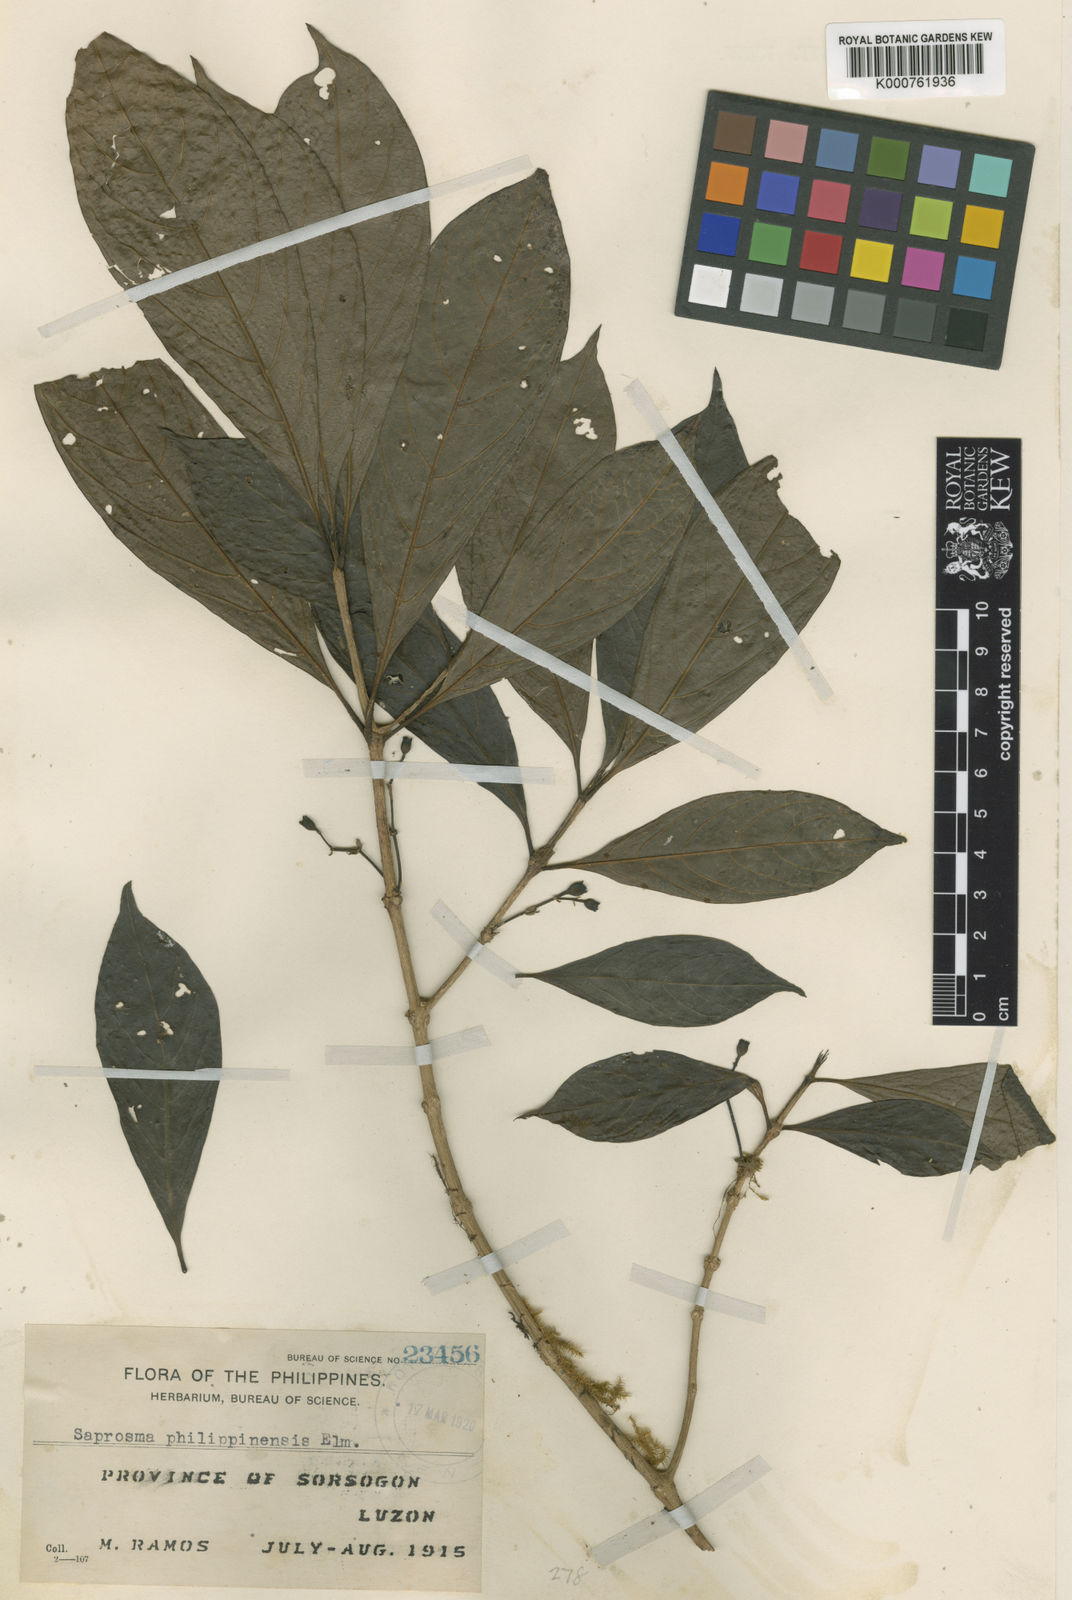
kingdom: Plantae
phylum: Tracheophyta
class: Magnoliopsida
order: Gentianales
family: Rubiaceae
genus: Saprosma
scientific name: Saprosma philippinensis
